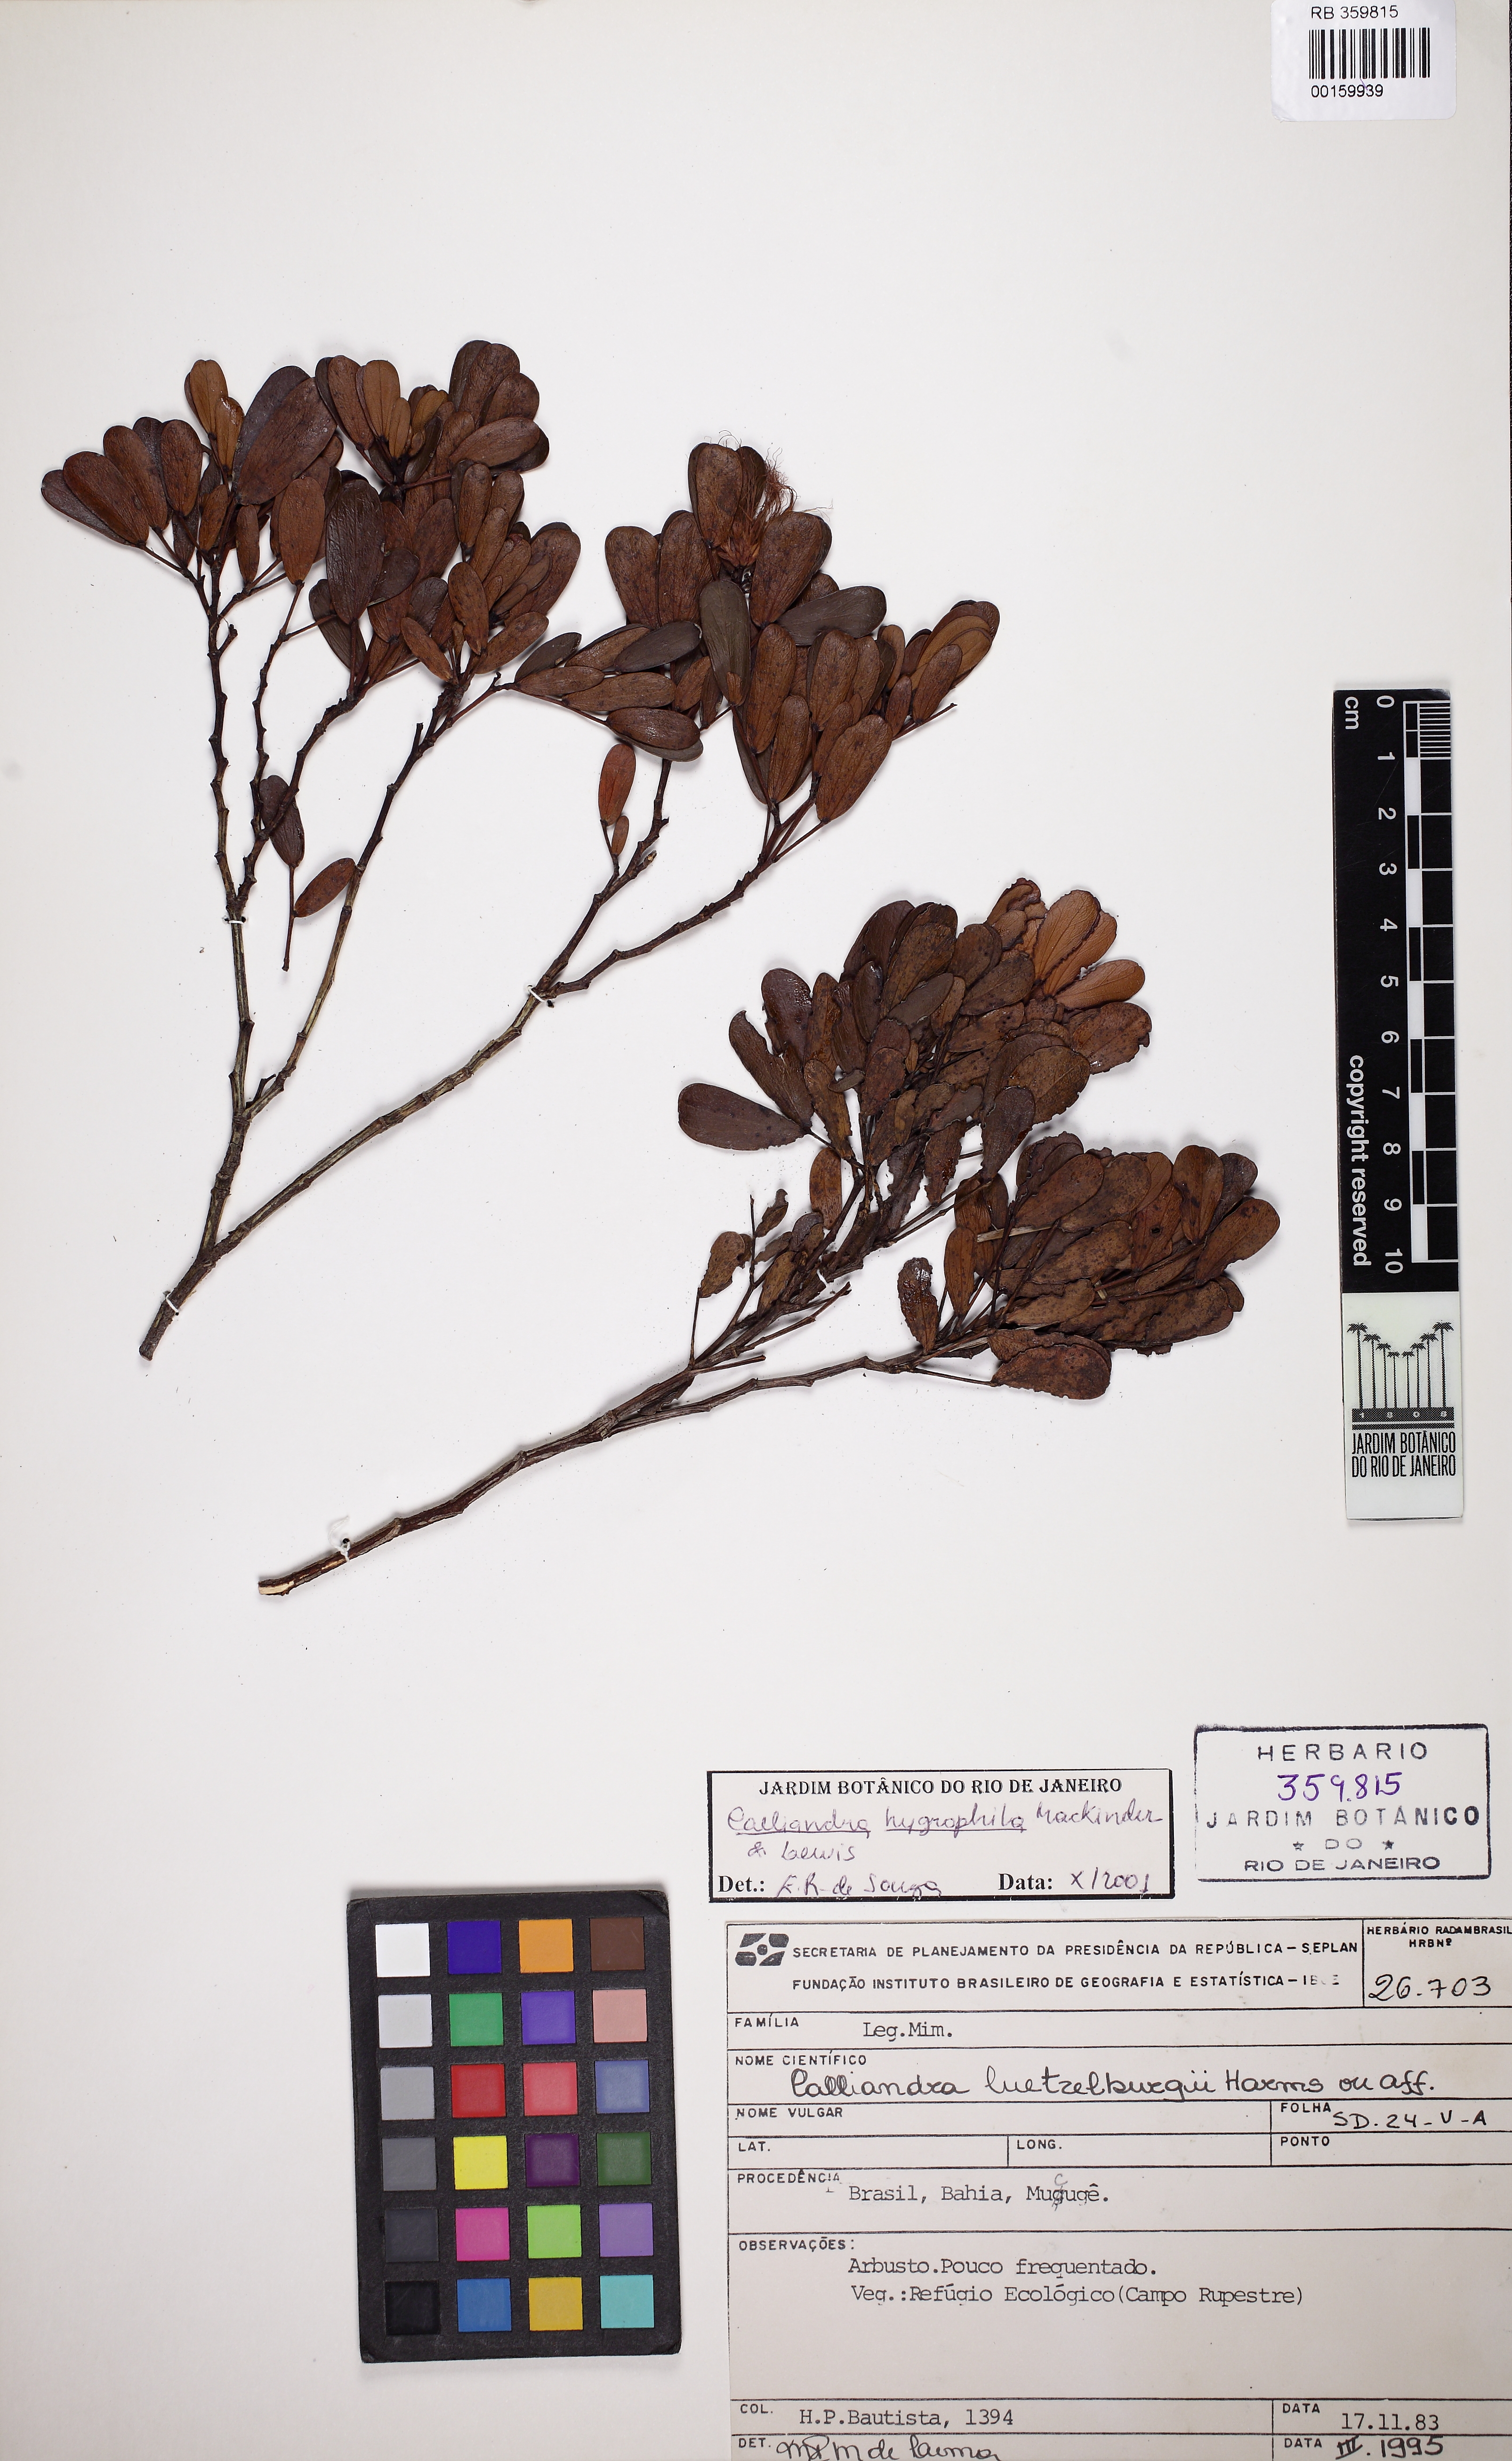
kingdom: Plantae
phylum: Tracheophyta
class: Magnoliopsida
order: Fabales
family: Fabaceae
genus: Calliandra
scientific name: Calliandra hygrophila
